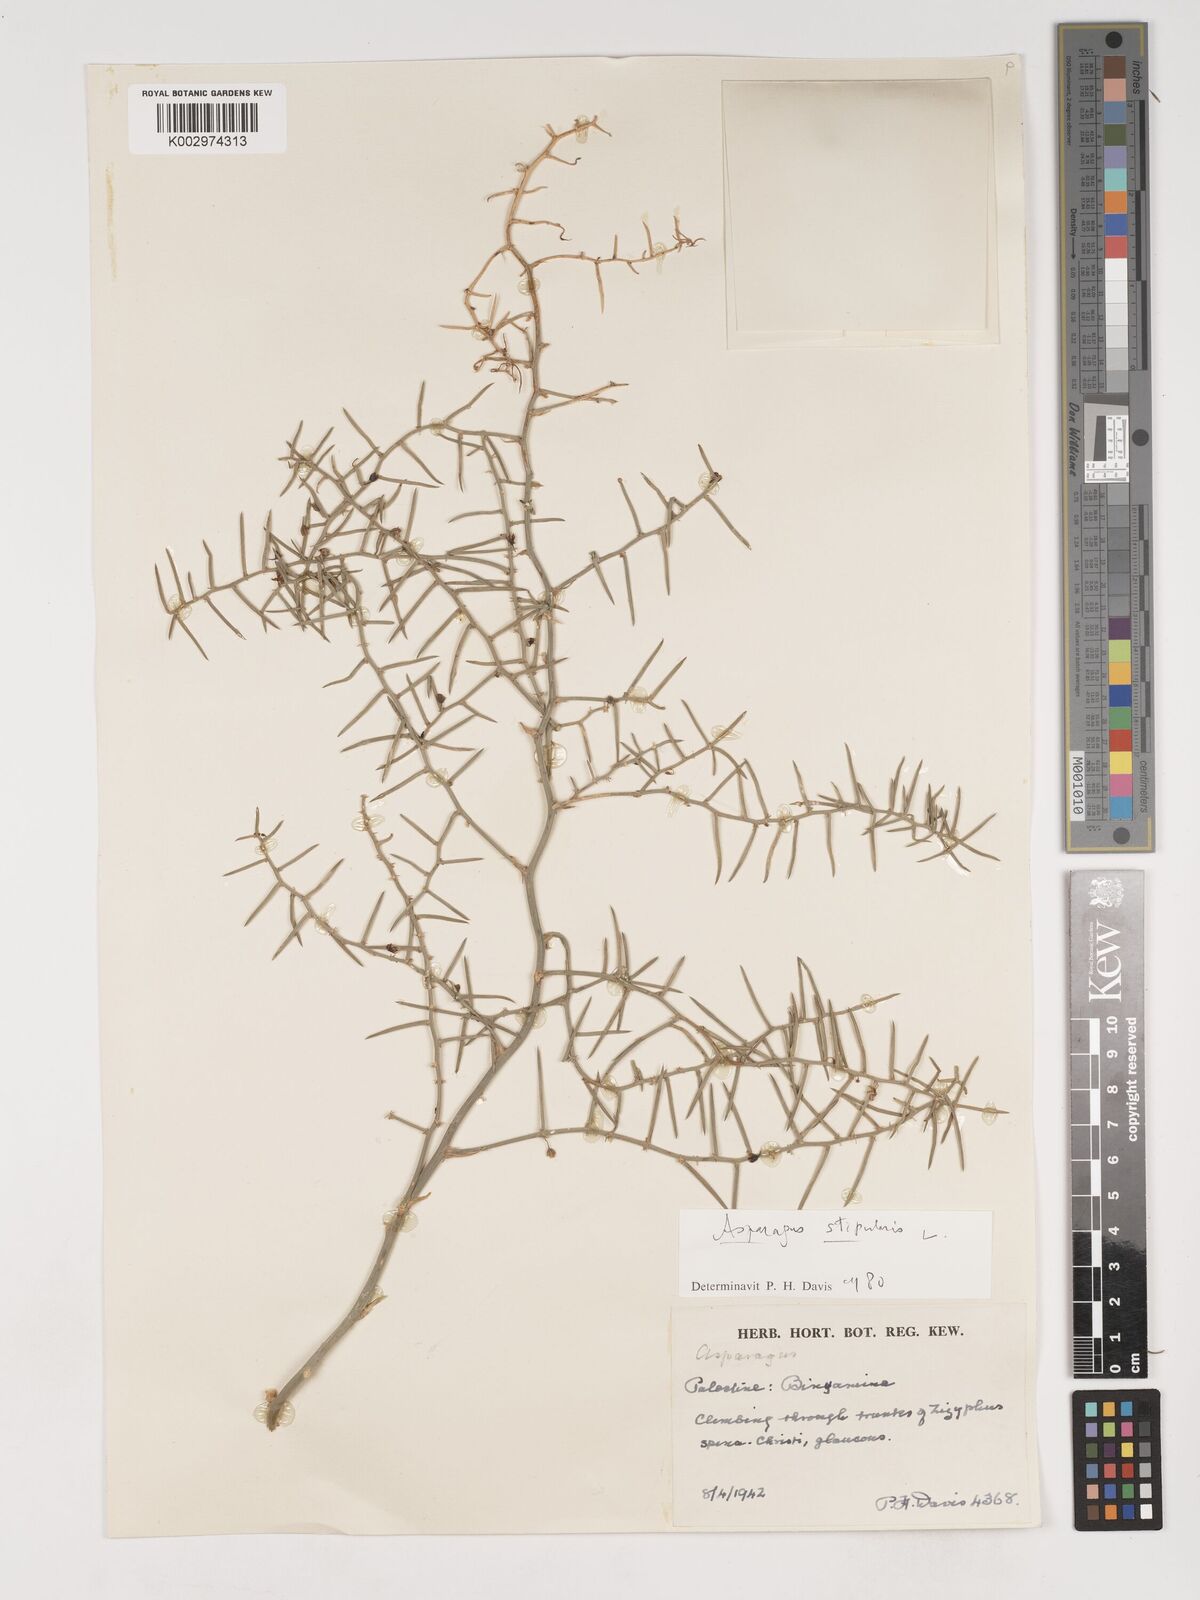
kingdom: Plantae
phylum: Tracheophyta
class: Liliopsida
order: Asparagales
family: Asparagaceae
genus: Asparagus
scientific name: Asparagus horridus
